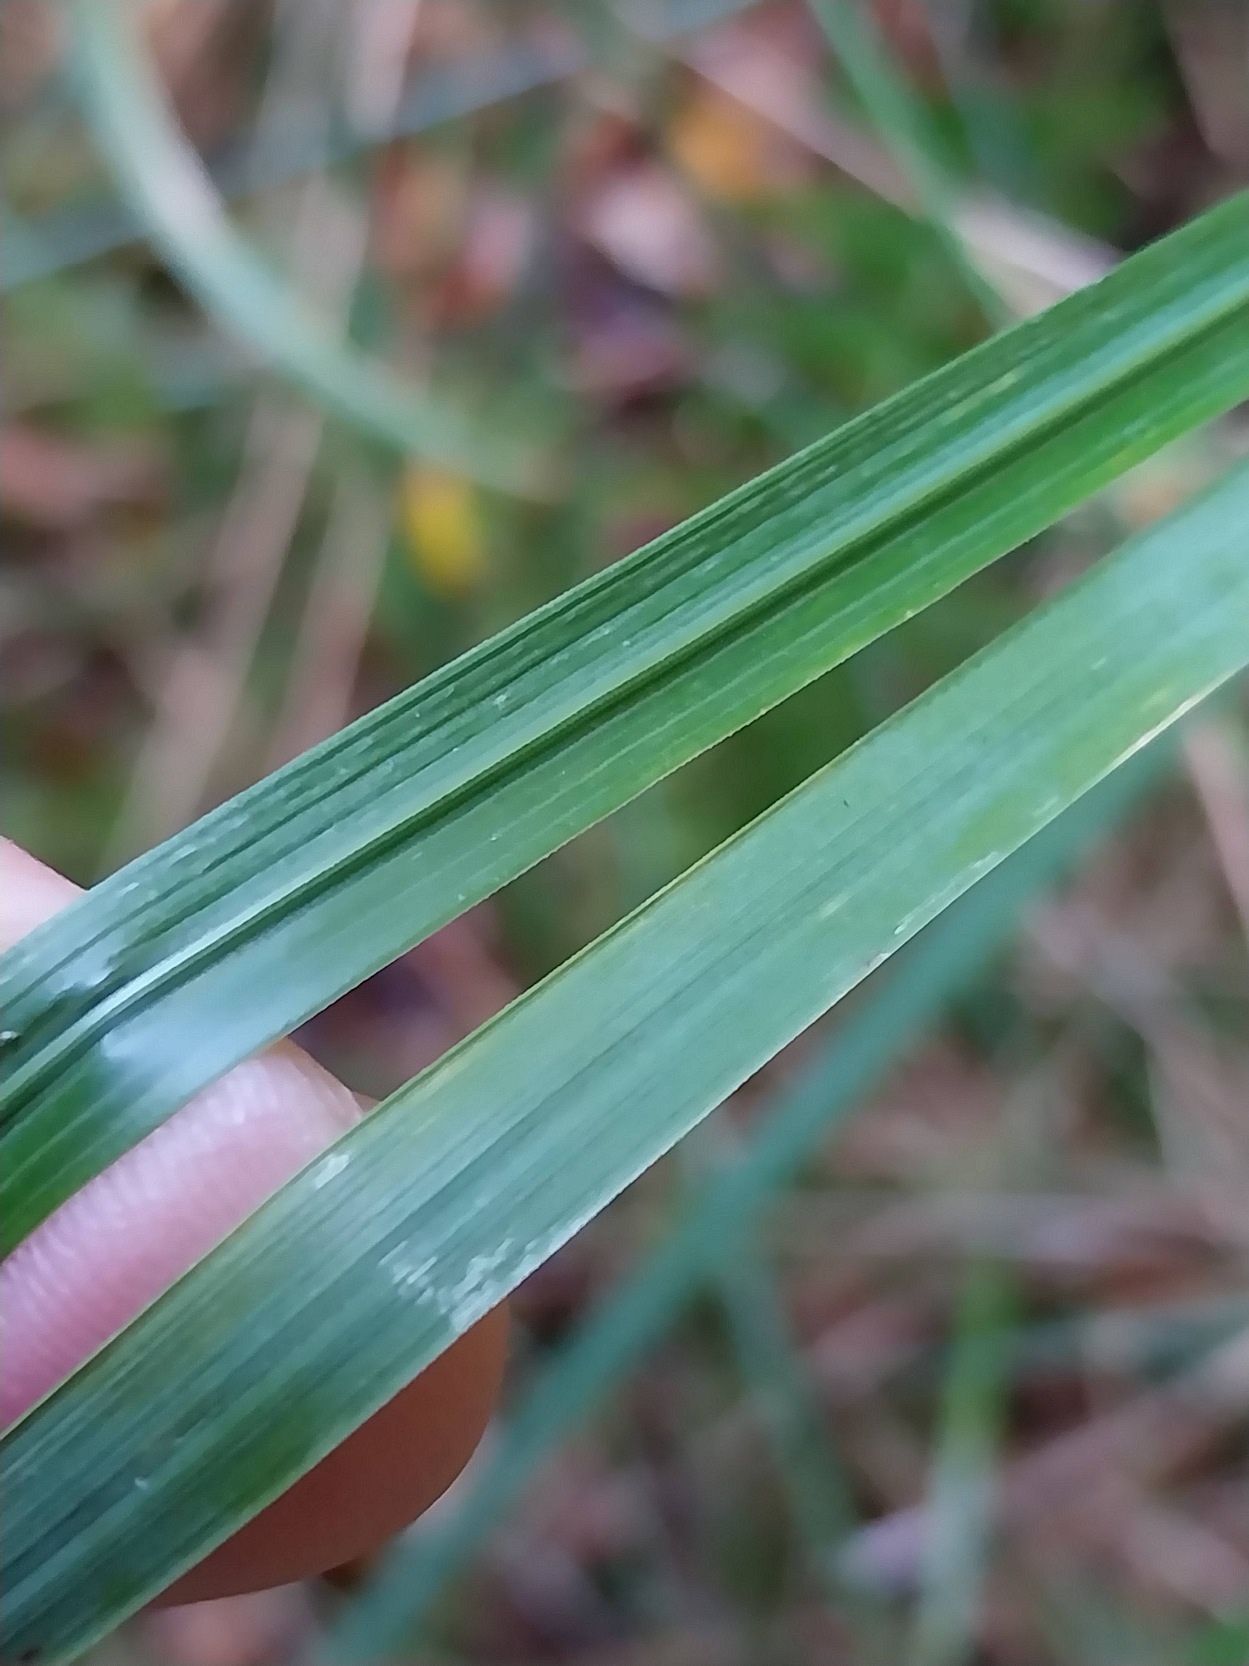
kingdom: Plantae
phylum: Tracheophyta
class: Liliopsida
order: Poales
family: Poaceae
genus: Calamagrostis
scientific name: Calamagrostis epigejos
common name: Bjerg-rørhvene
